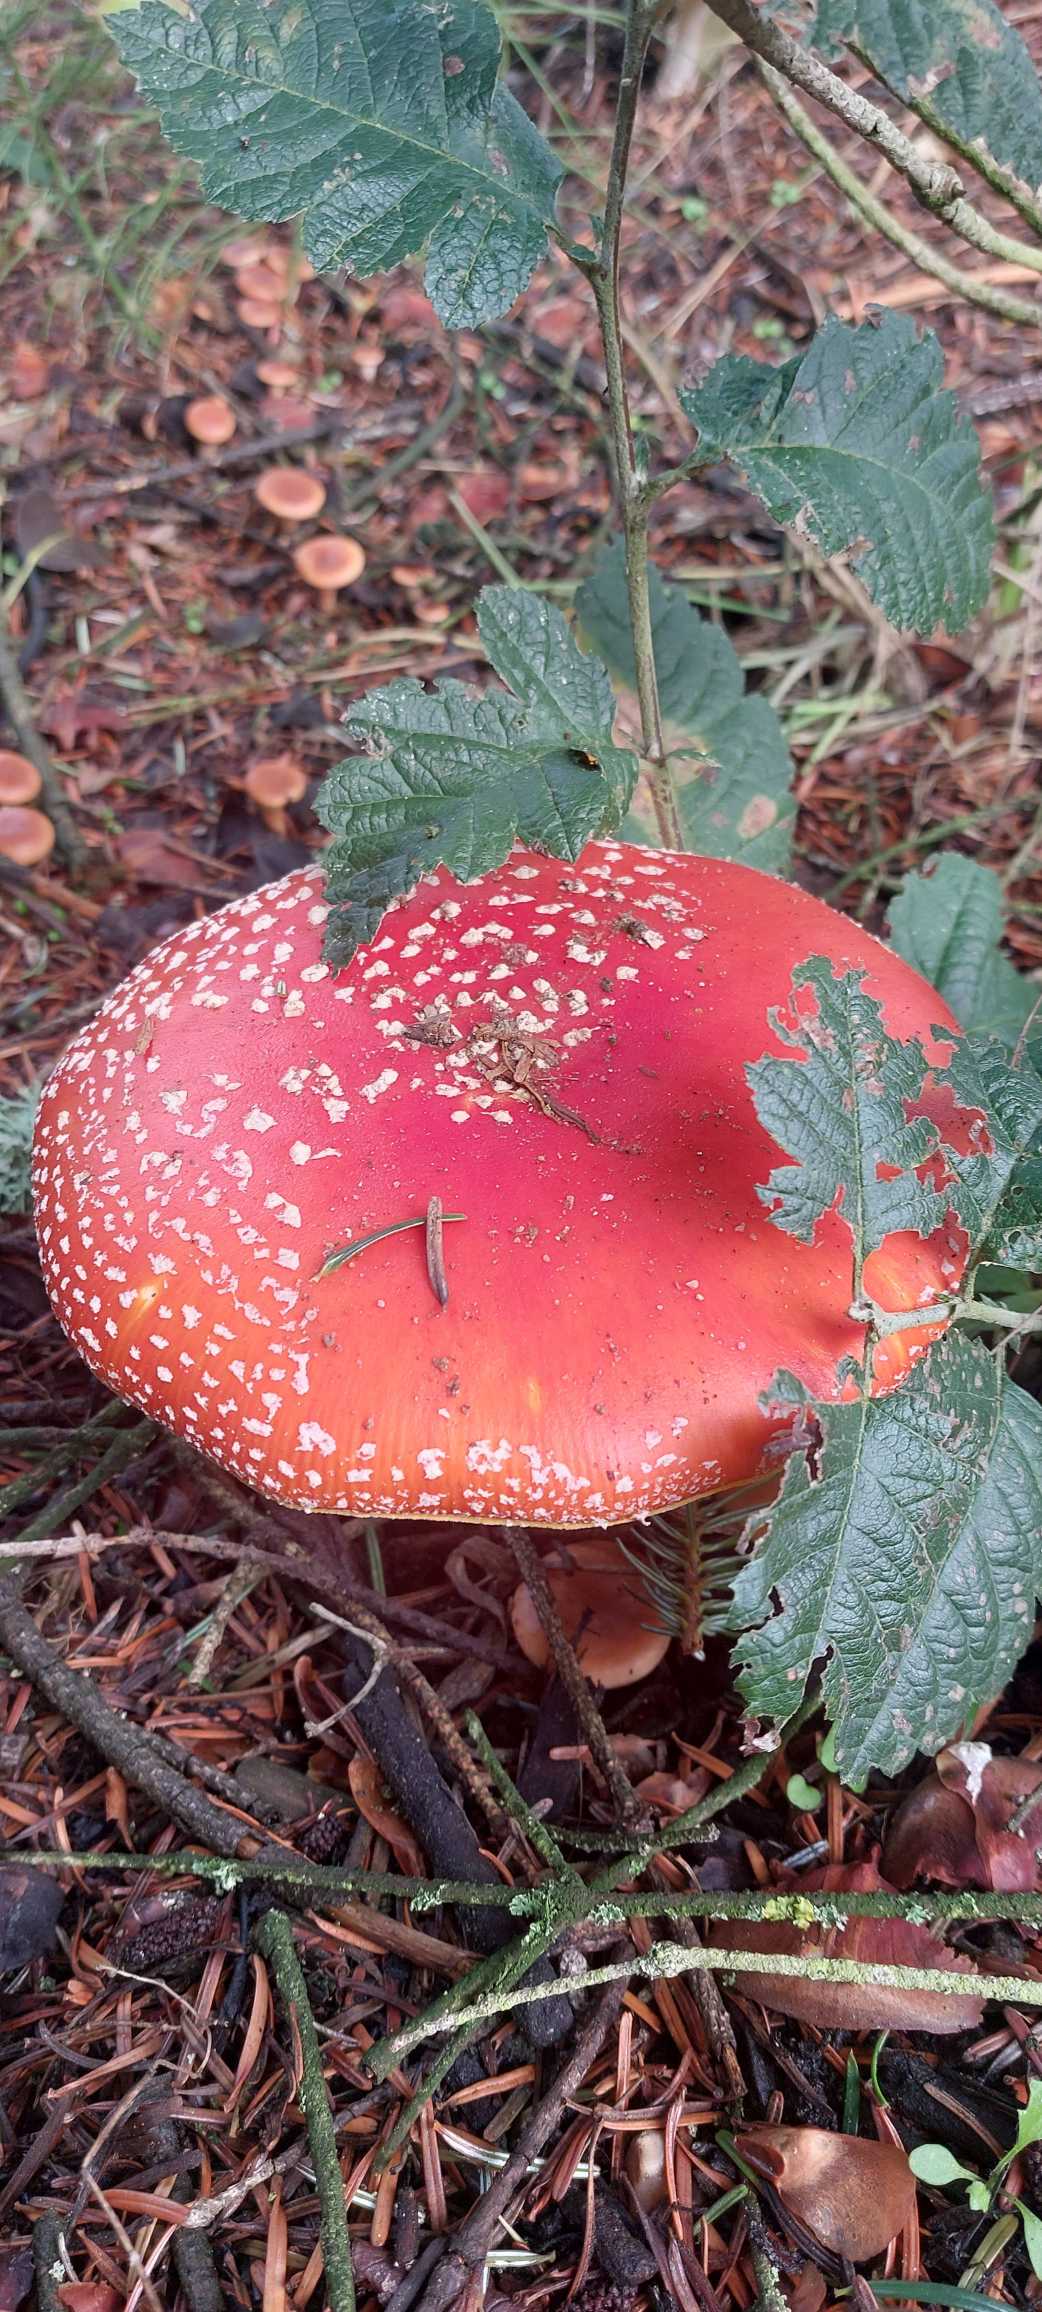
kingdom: Fungi
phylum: Basidiomycota
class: Agaricomycetes
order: Agaricales
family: Amanitaceae
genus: Amanita
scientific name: Amanita muscaria
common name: Rød fluesvamp
